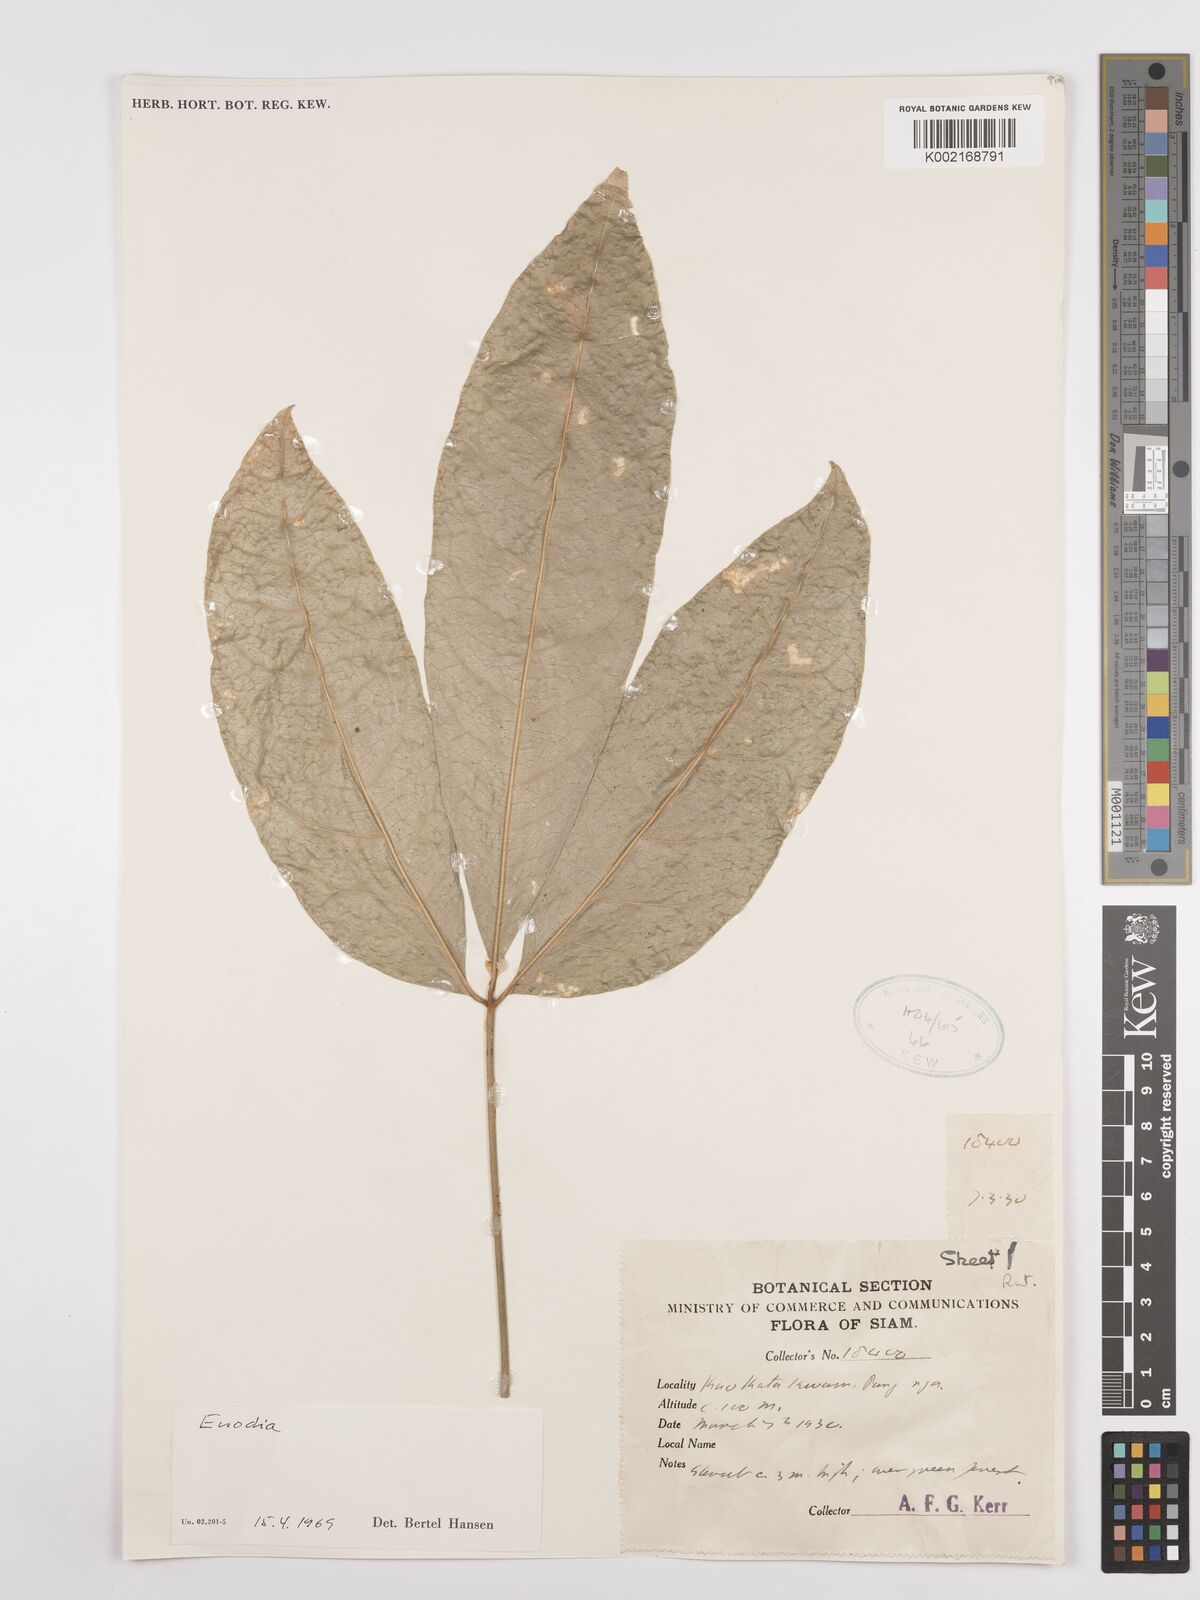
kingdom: Plantae
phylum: Tracheophyta
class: Magnoliopsida
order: Sapindales
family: Rutaceae
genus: Euodia
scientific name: Euodia
